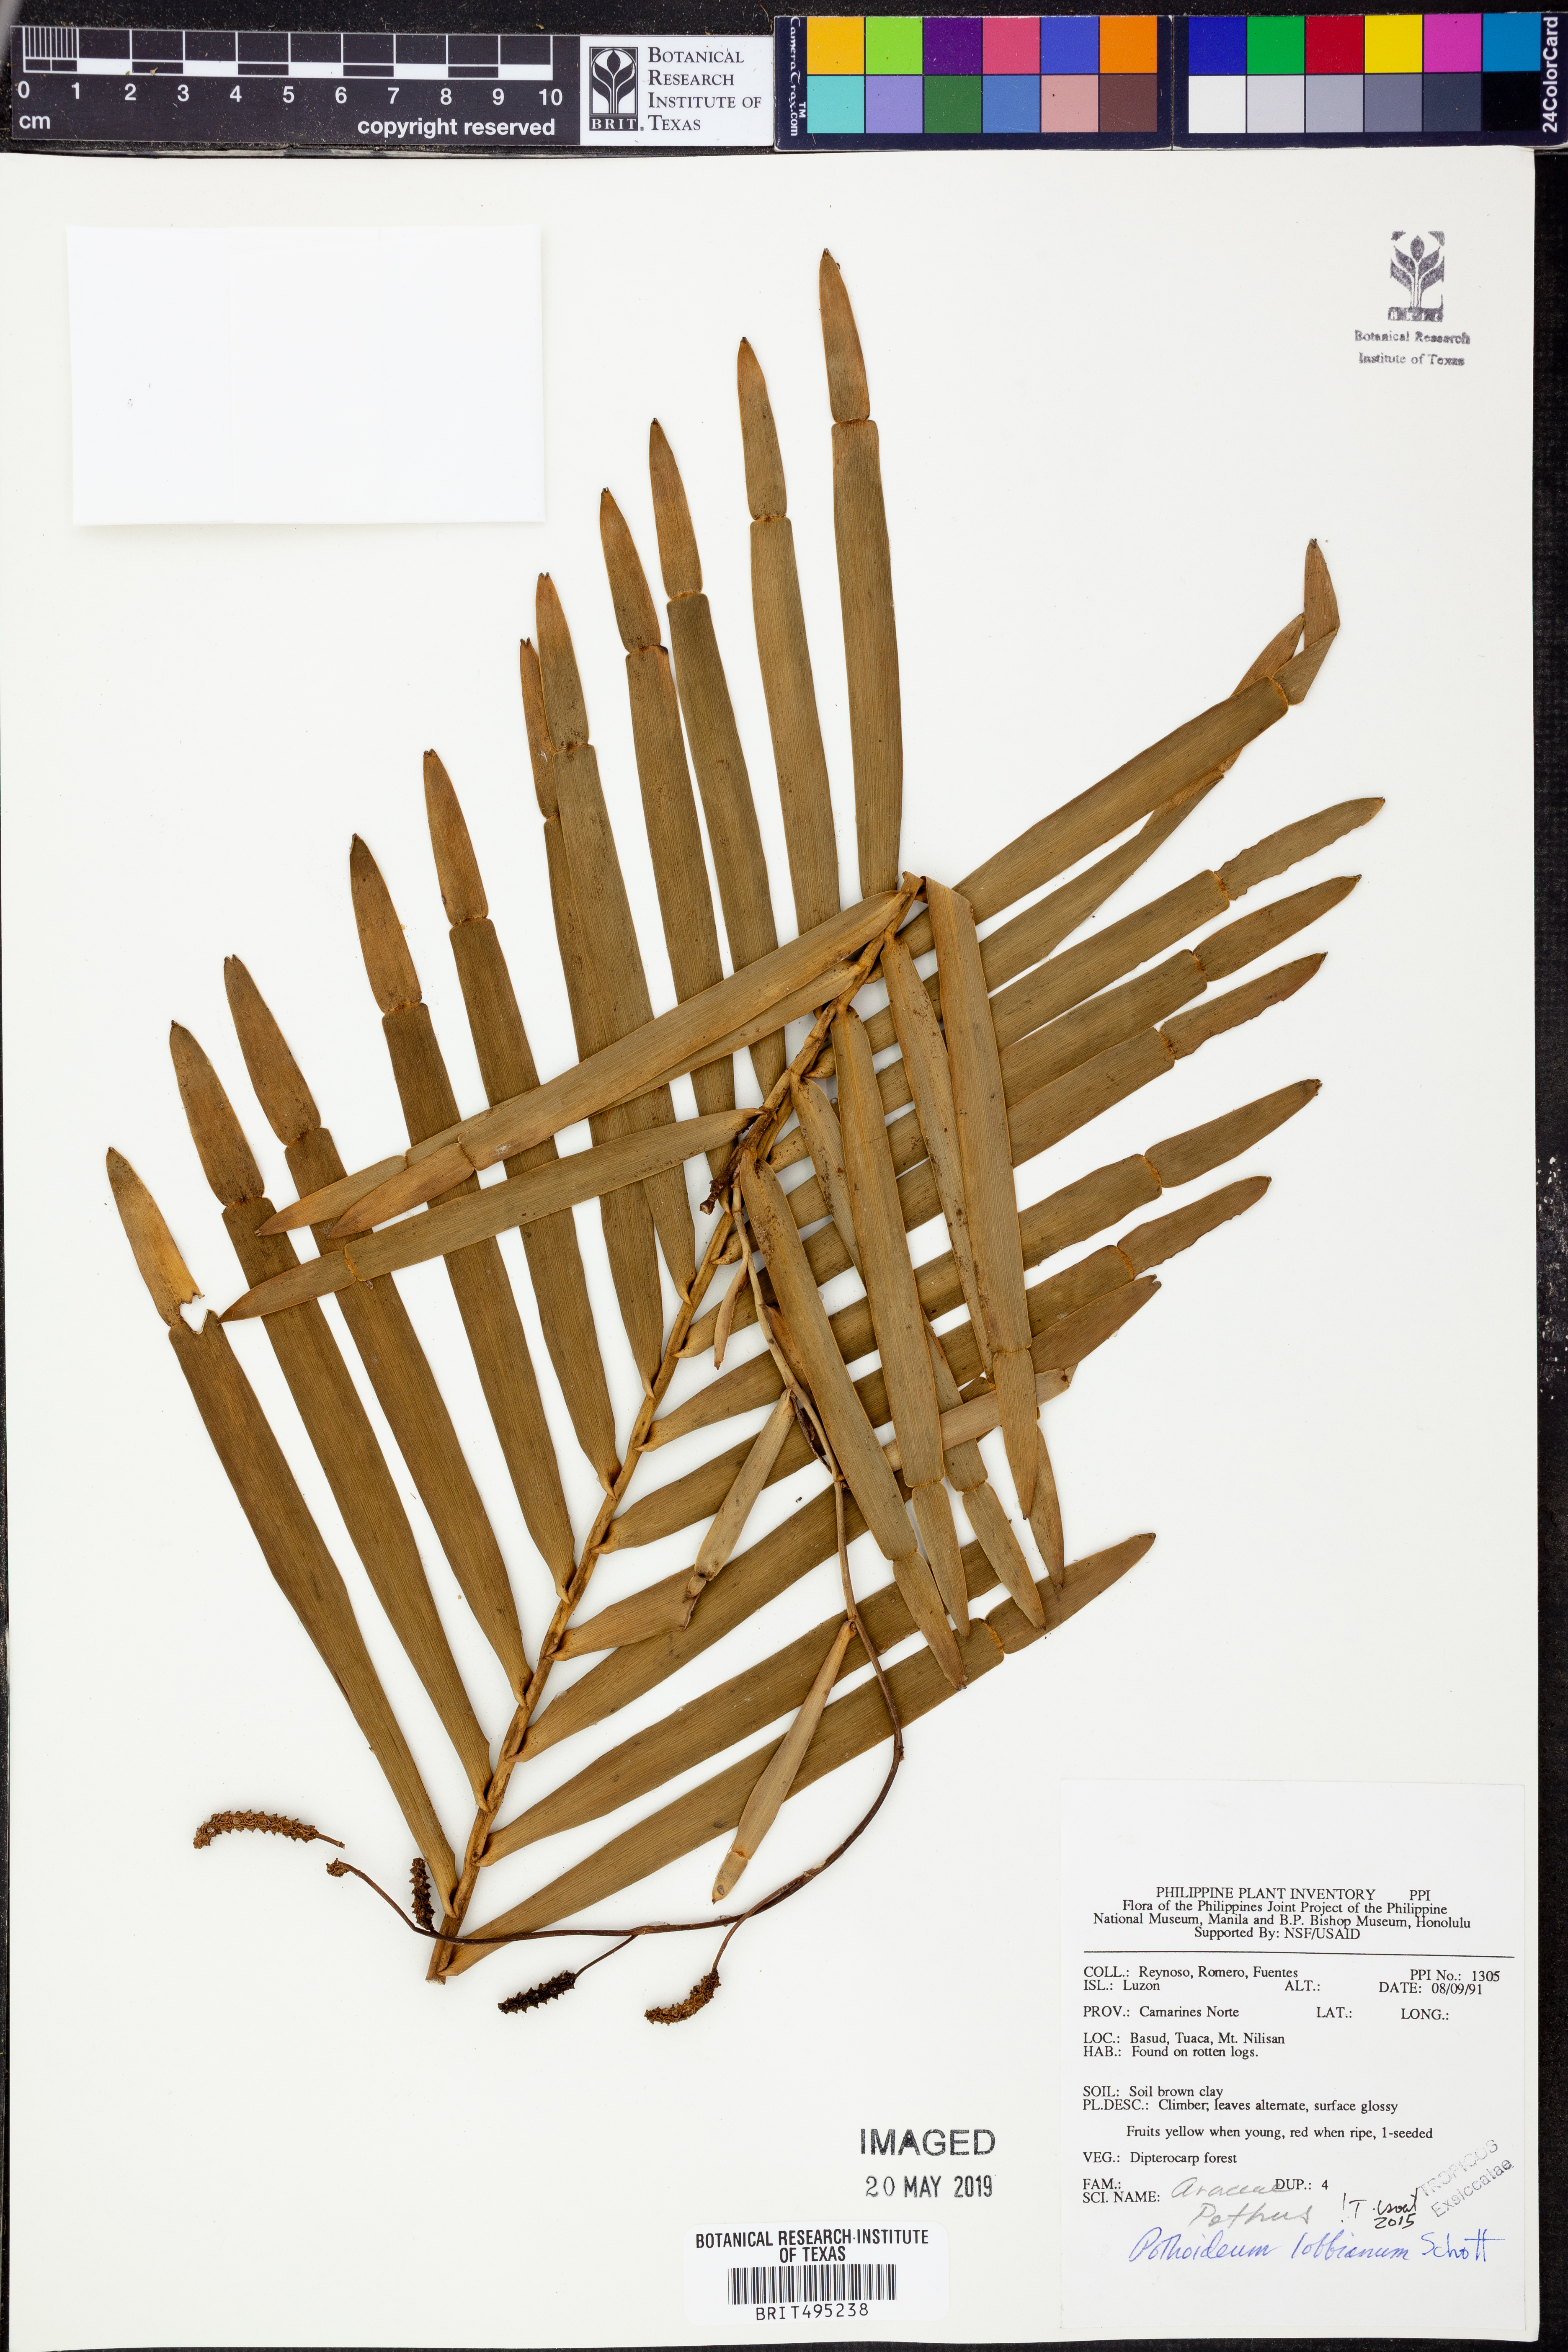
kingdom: Plantae
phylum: Tracheophyta
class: Liliopsida
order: Alismatales
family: Araceae
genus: Pothoidium
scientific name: Pothoidium lobbianum
